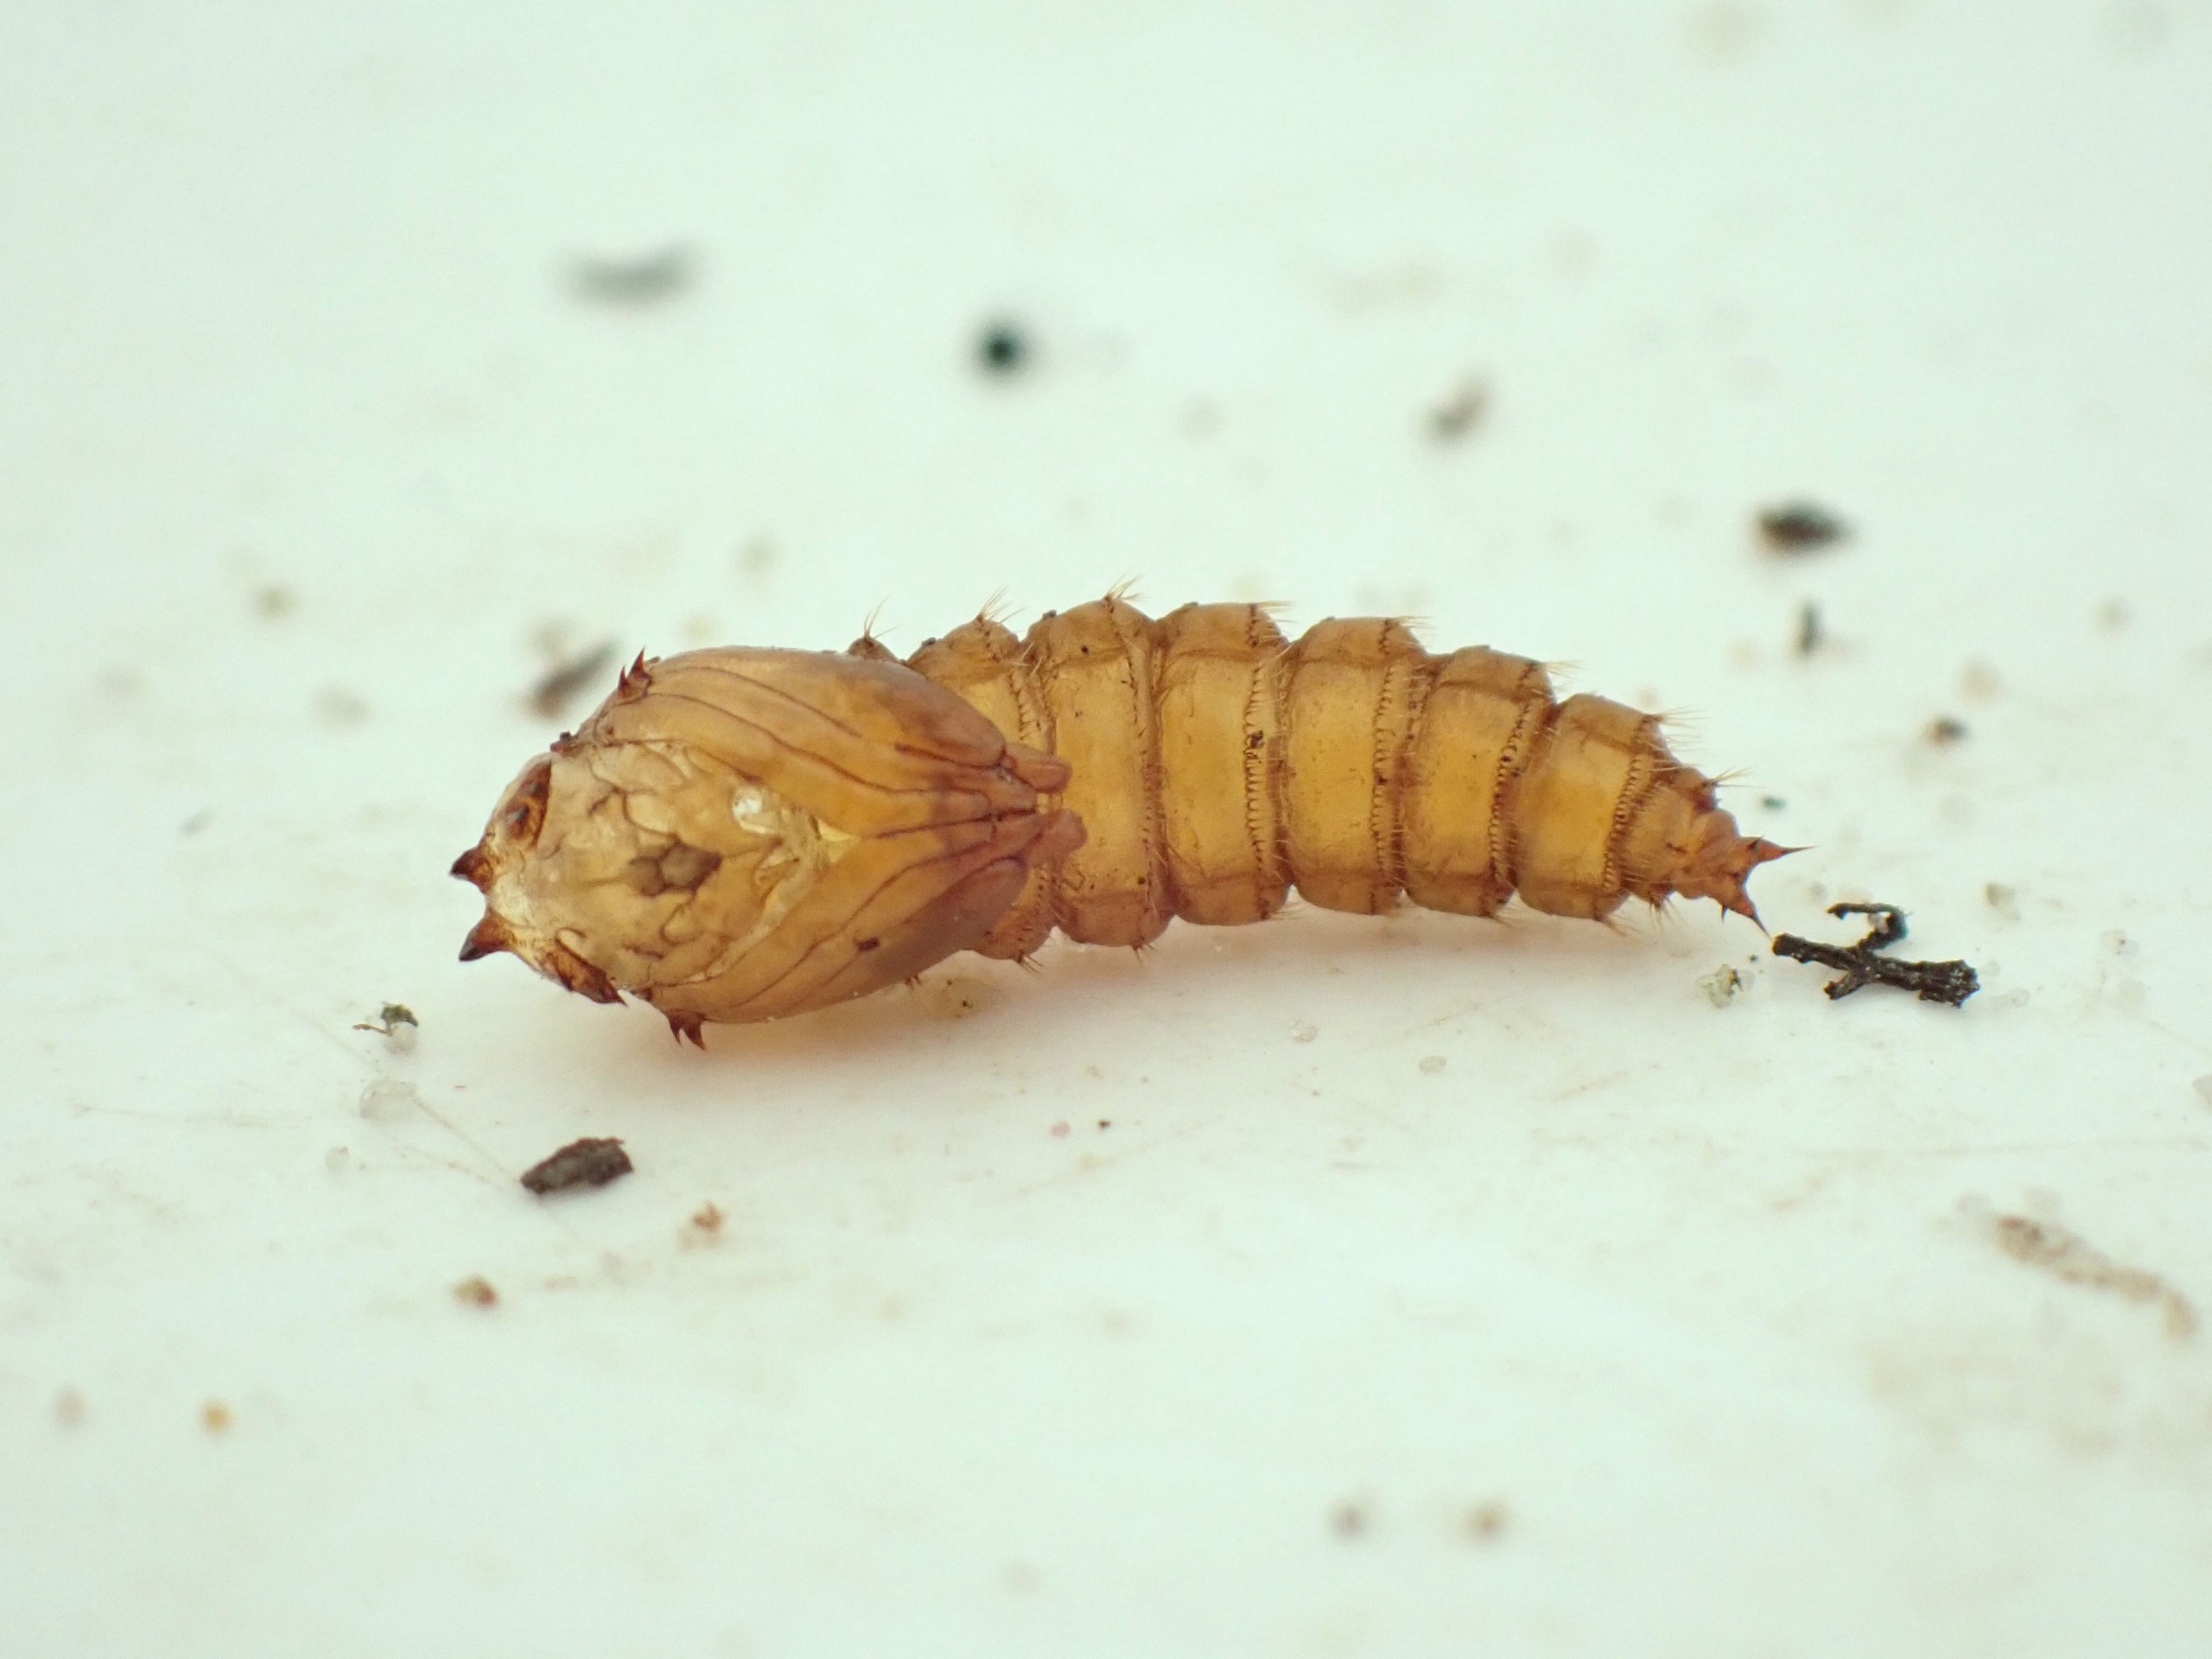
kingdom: Animalia
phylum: Arthropoda
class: Insecta
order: Diptera
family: Asilidae
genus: Machimus
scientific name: Machimus atricapillus
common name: Sort hårrovflue
